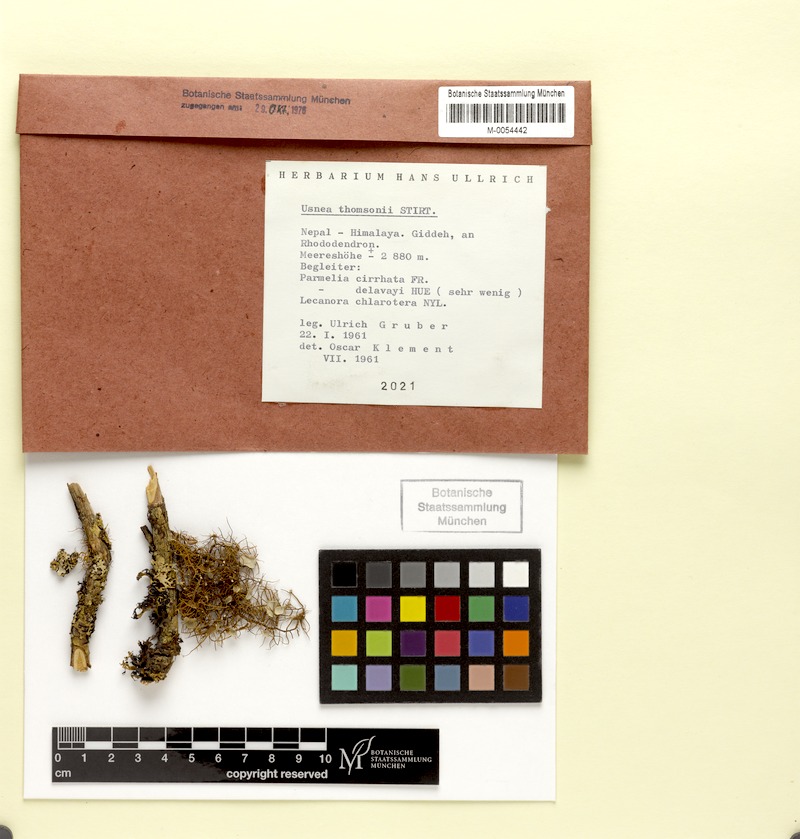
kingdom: Fungi
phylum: Ascomycota
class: Lecanoromycetes
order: Lecanorales
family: Lecanoraceae
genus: Lecanora
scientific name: Lecanora chlarotera
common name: Brown rim-lichen
